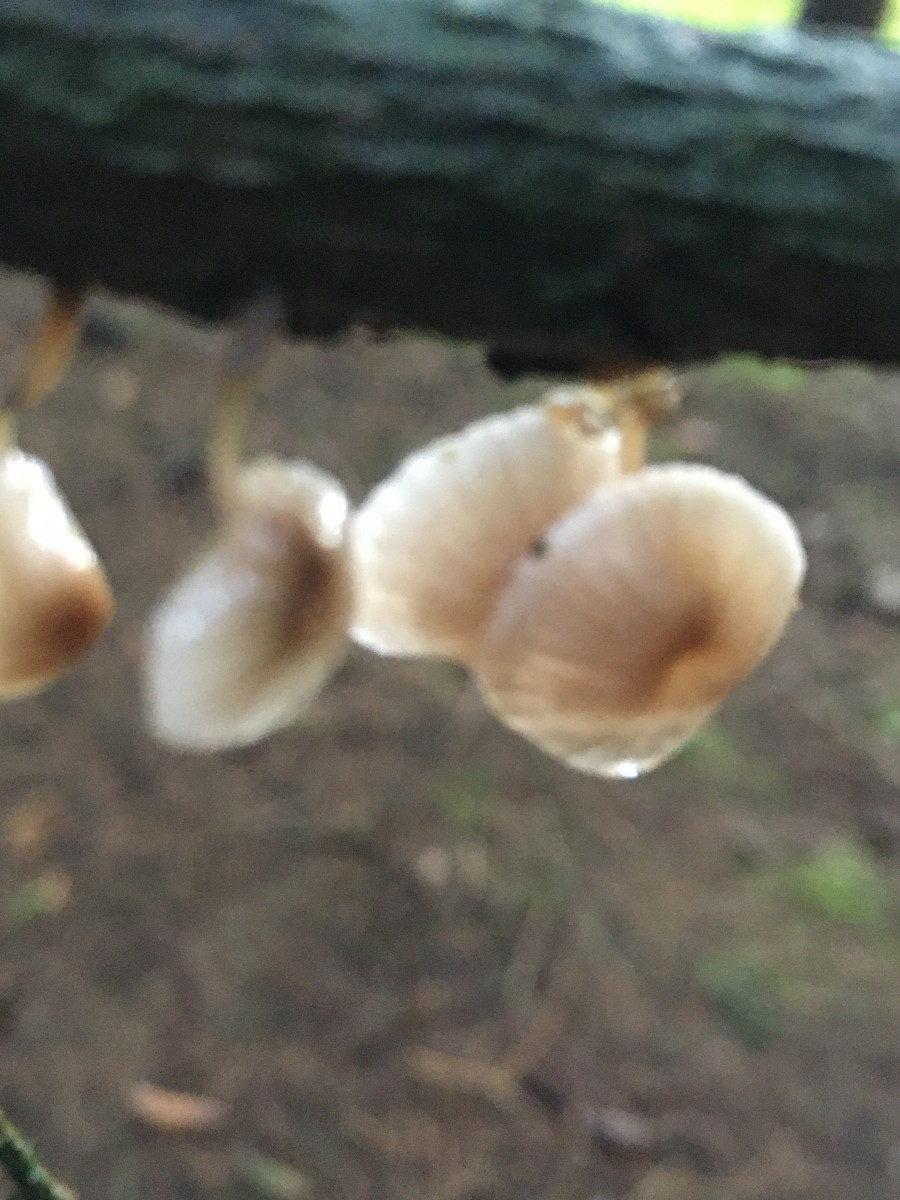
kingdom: Fungi
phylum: Basidiomycota
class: Agaricomycetes
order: Agaricales
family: Mycenaceae
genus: Mycena
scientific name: Mycena
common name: huesvamp
